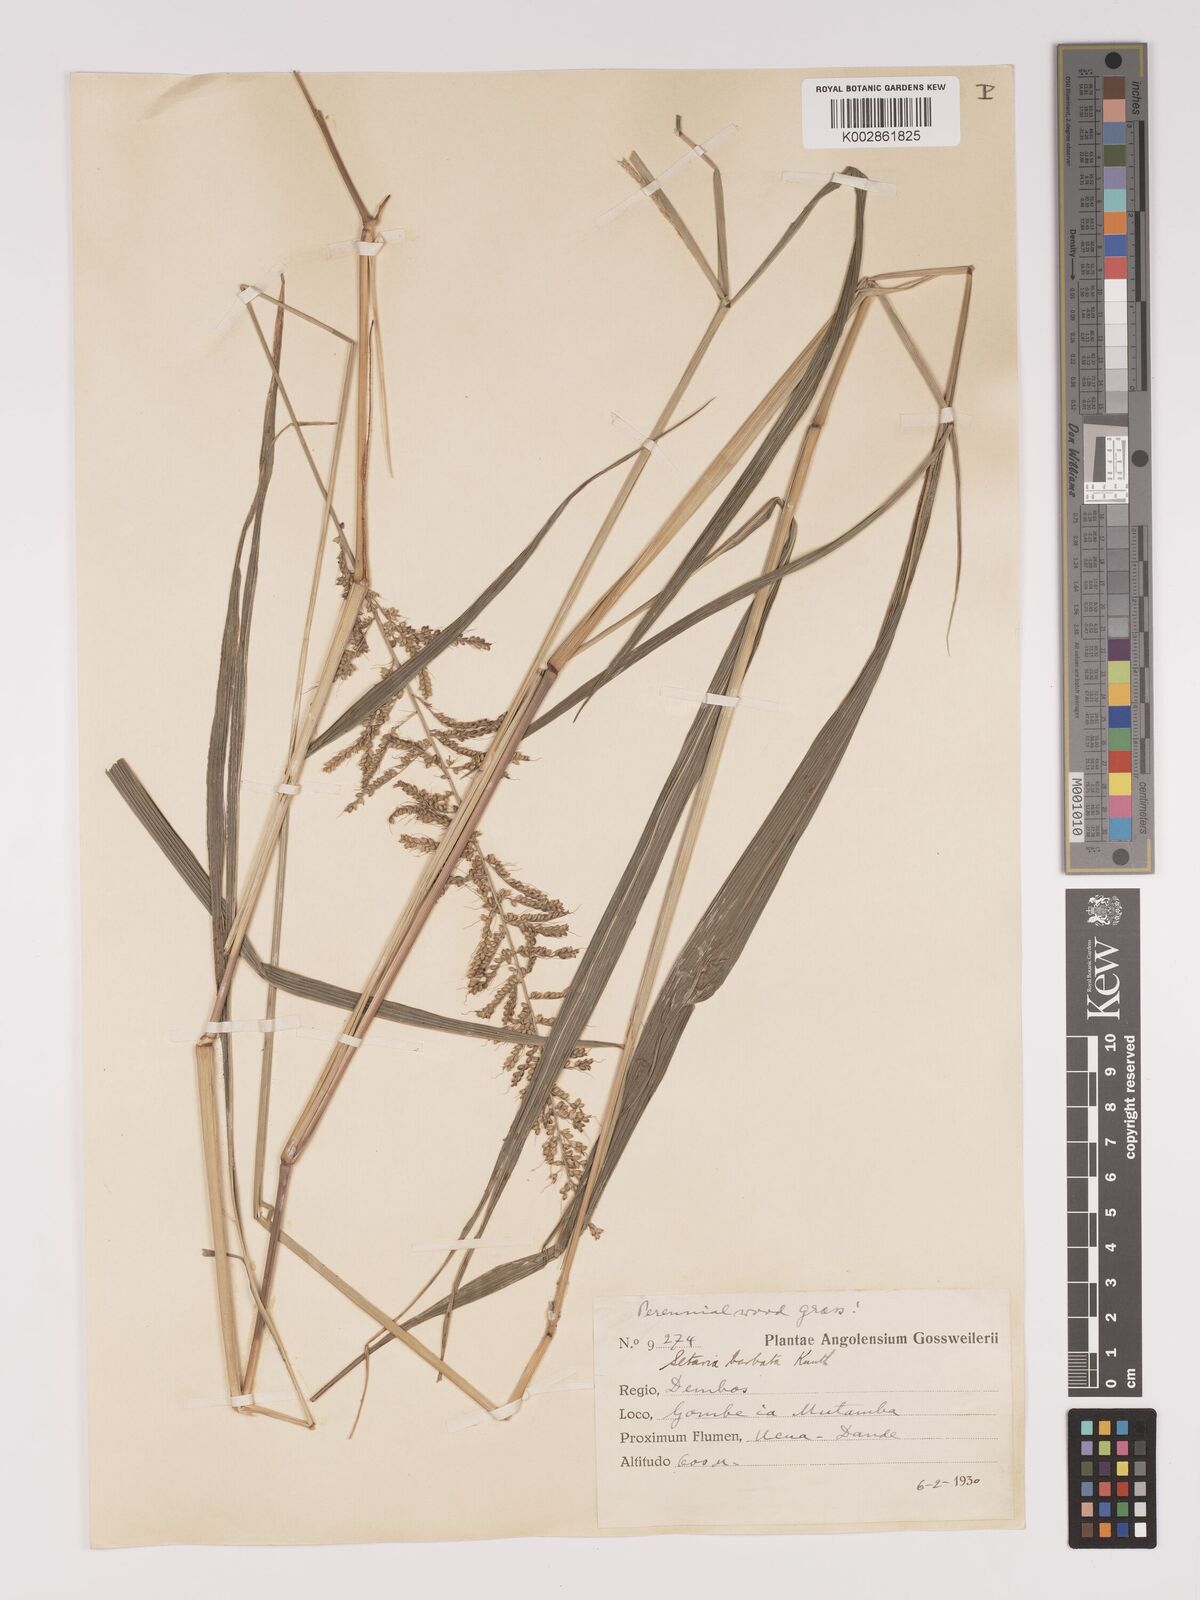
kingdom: Plantae
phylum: Tracheophyta
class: Liliopsida
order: Poales
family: Poaceae
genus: Setaria
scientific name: Setaria barbata
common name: East indian bristlegrass
